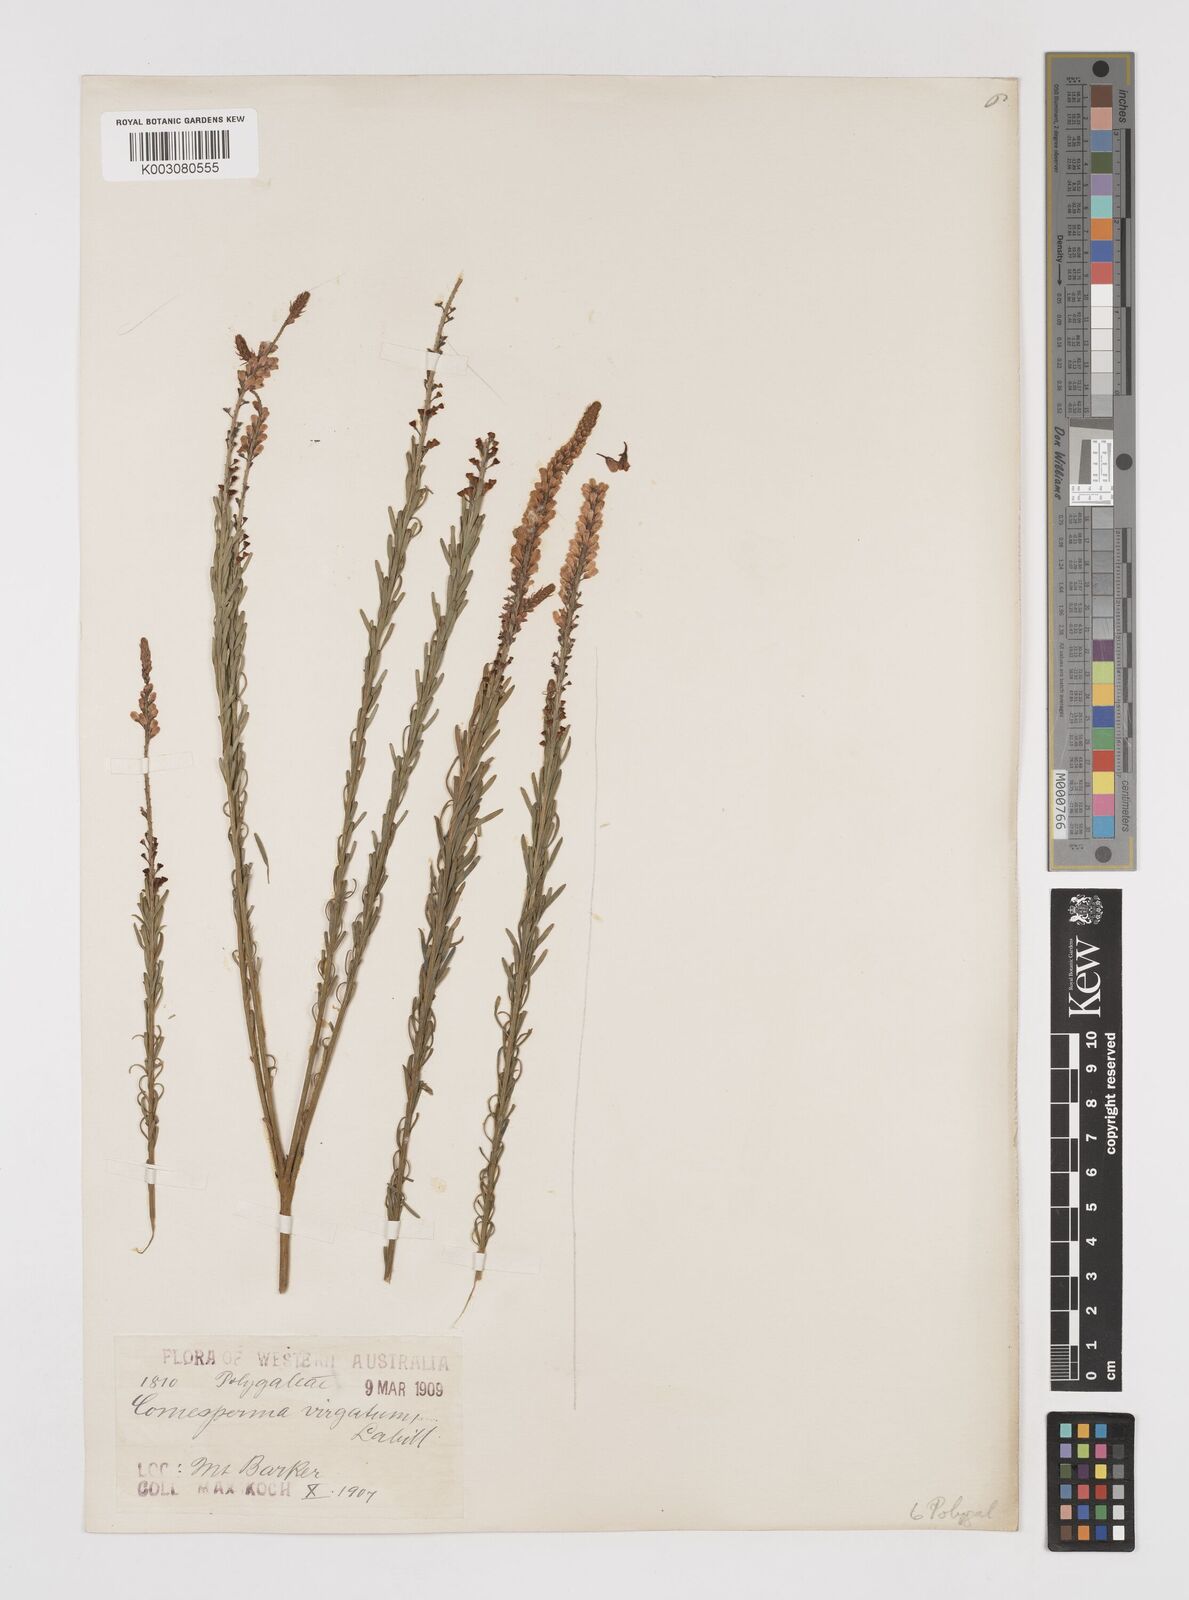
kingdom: Plantae
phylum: Tracheophyta
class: Magnoliopsida
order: Fabales
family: Polygalaceae
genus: Comesperma
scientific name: Comesperma virgatum
